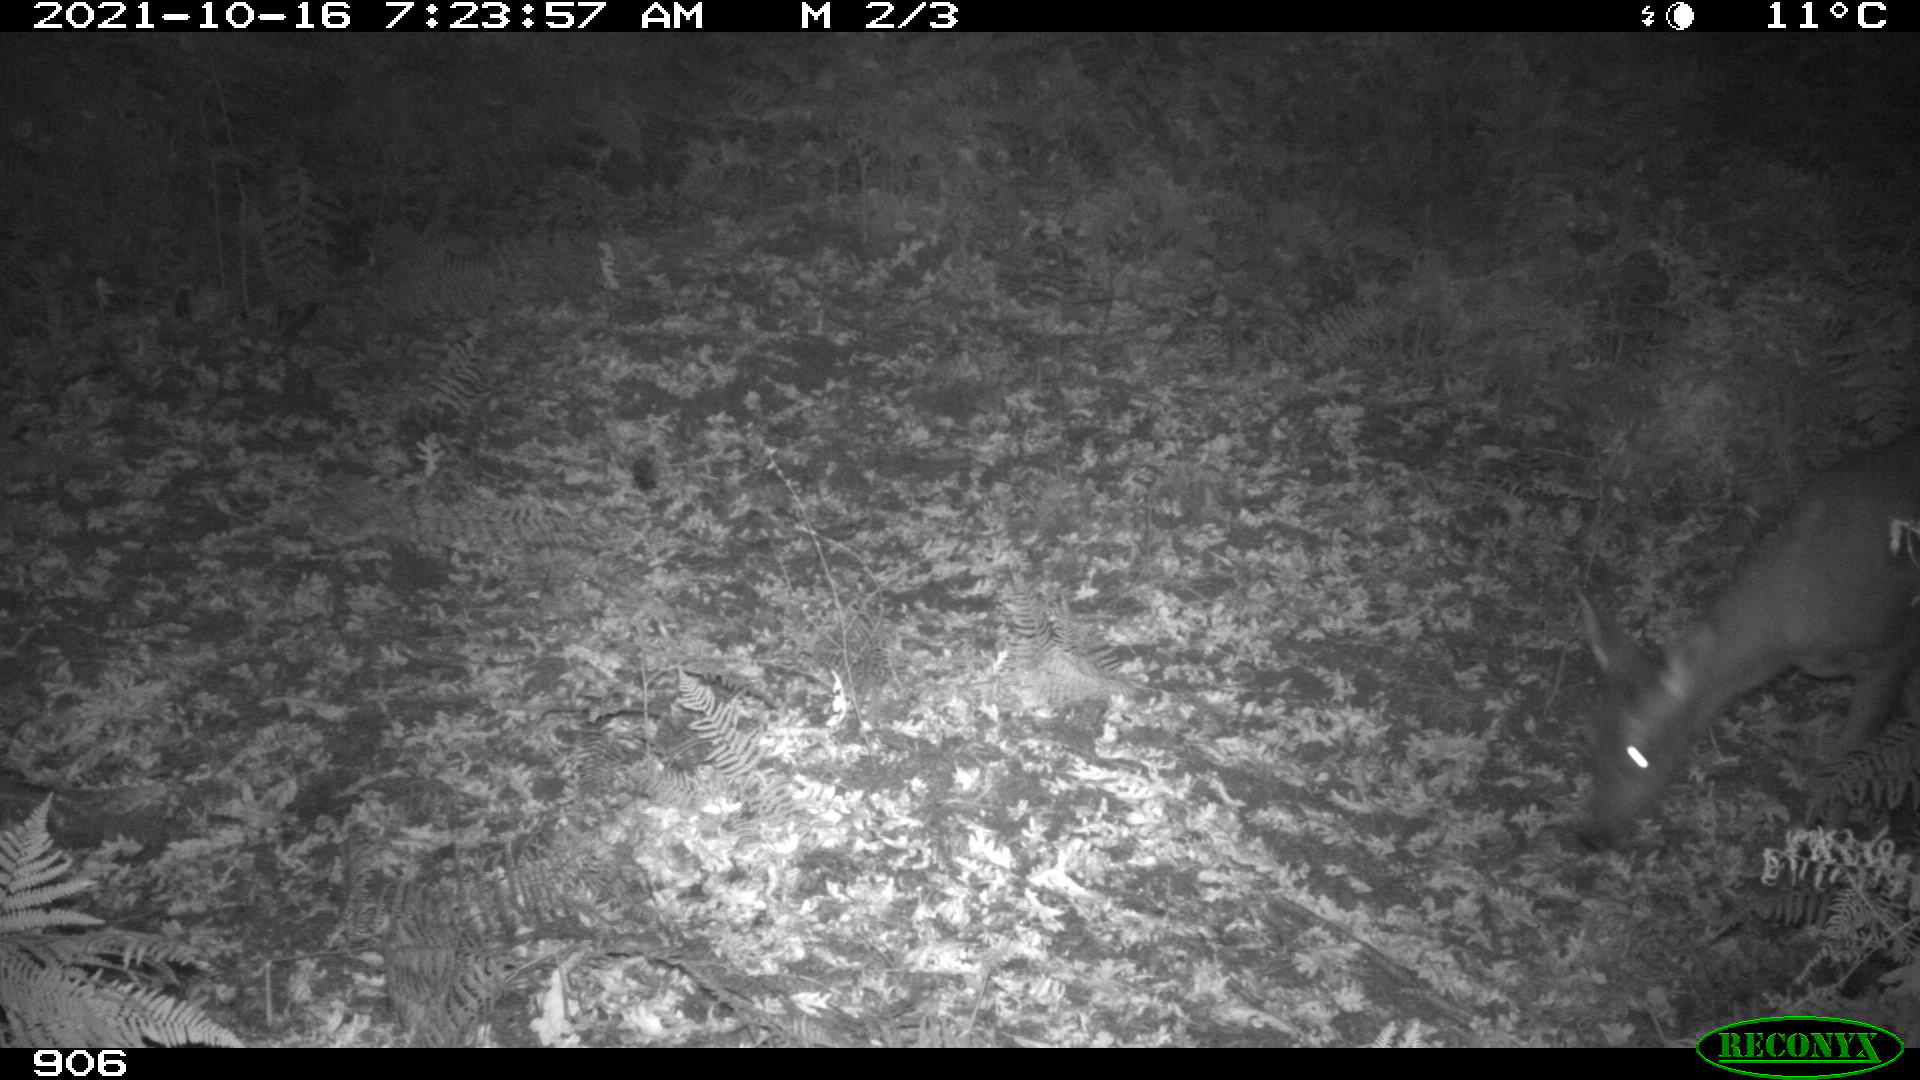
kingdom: Animalia
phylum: Chordata
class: Mammalia
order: Artiodactyla
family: Cervidae
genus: Capreolus
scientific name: Capreolus capreolus
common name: Western roe deer
